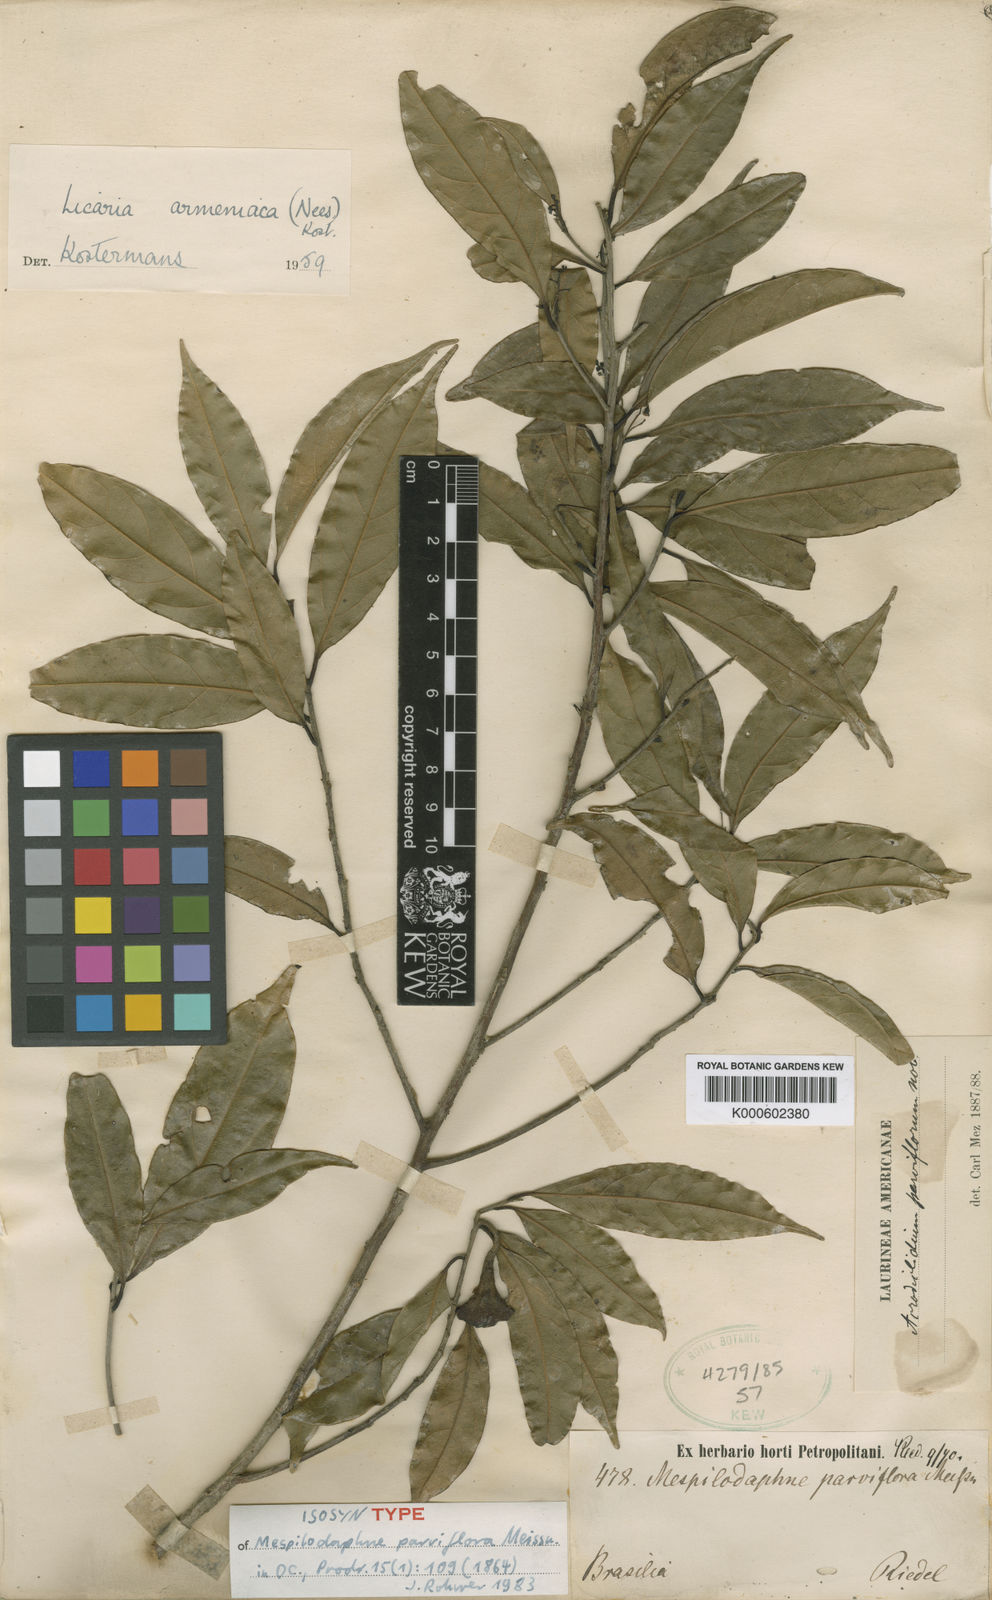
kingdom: Plantae
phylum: Tracheophyta
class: Magnoliopsida
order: Laurales
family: Lauraceae
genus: Pleurothyrium
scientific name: Pleurothyrium parviflorum
